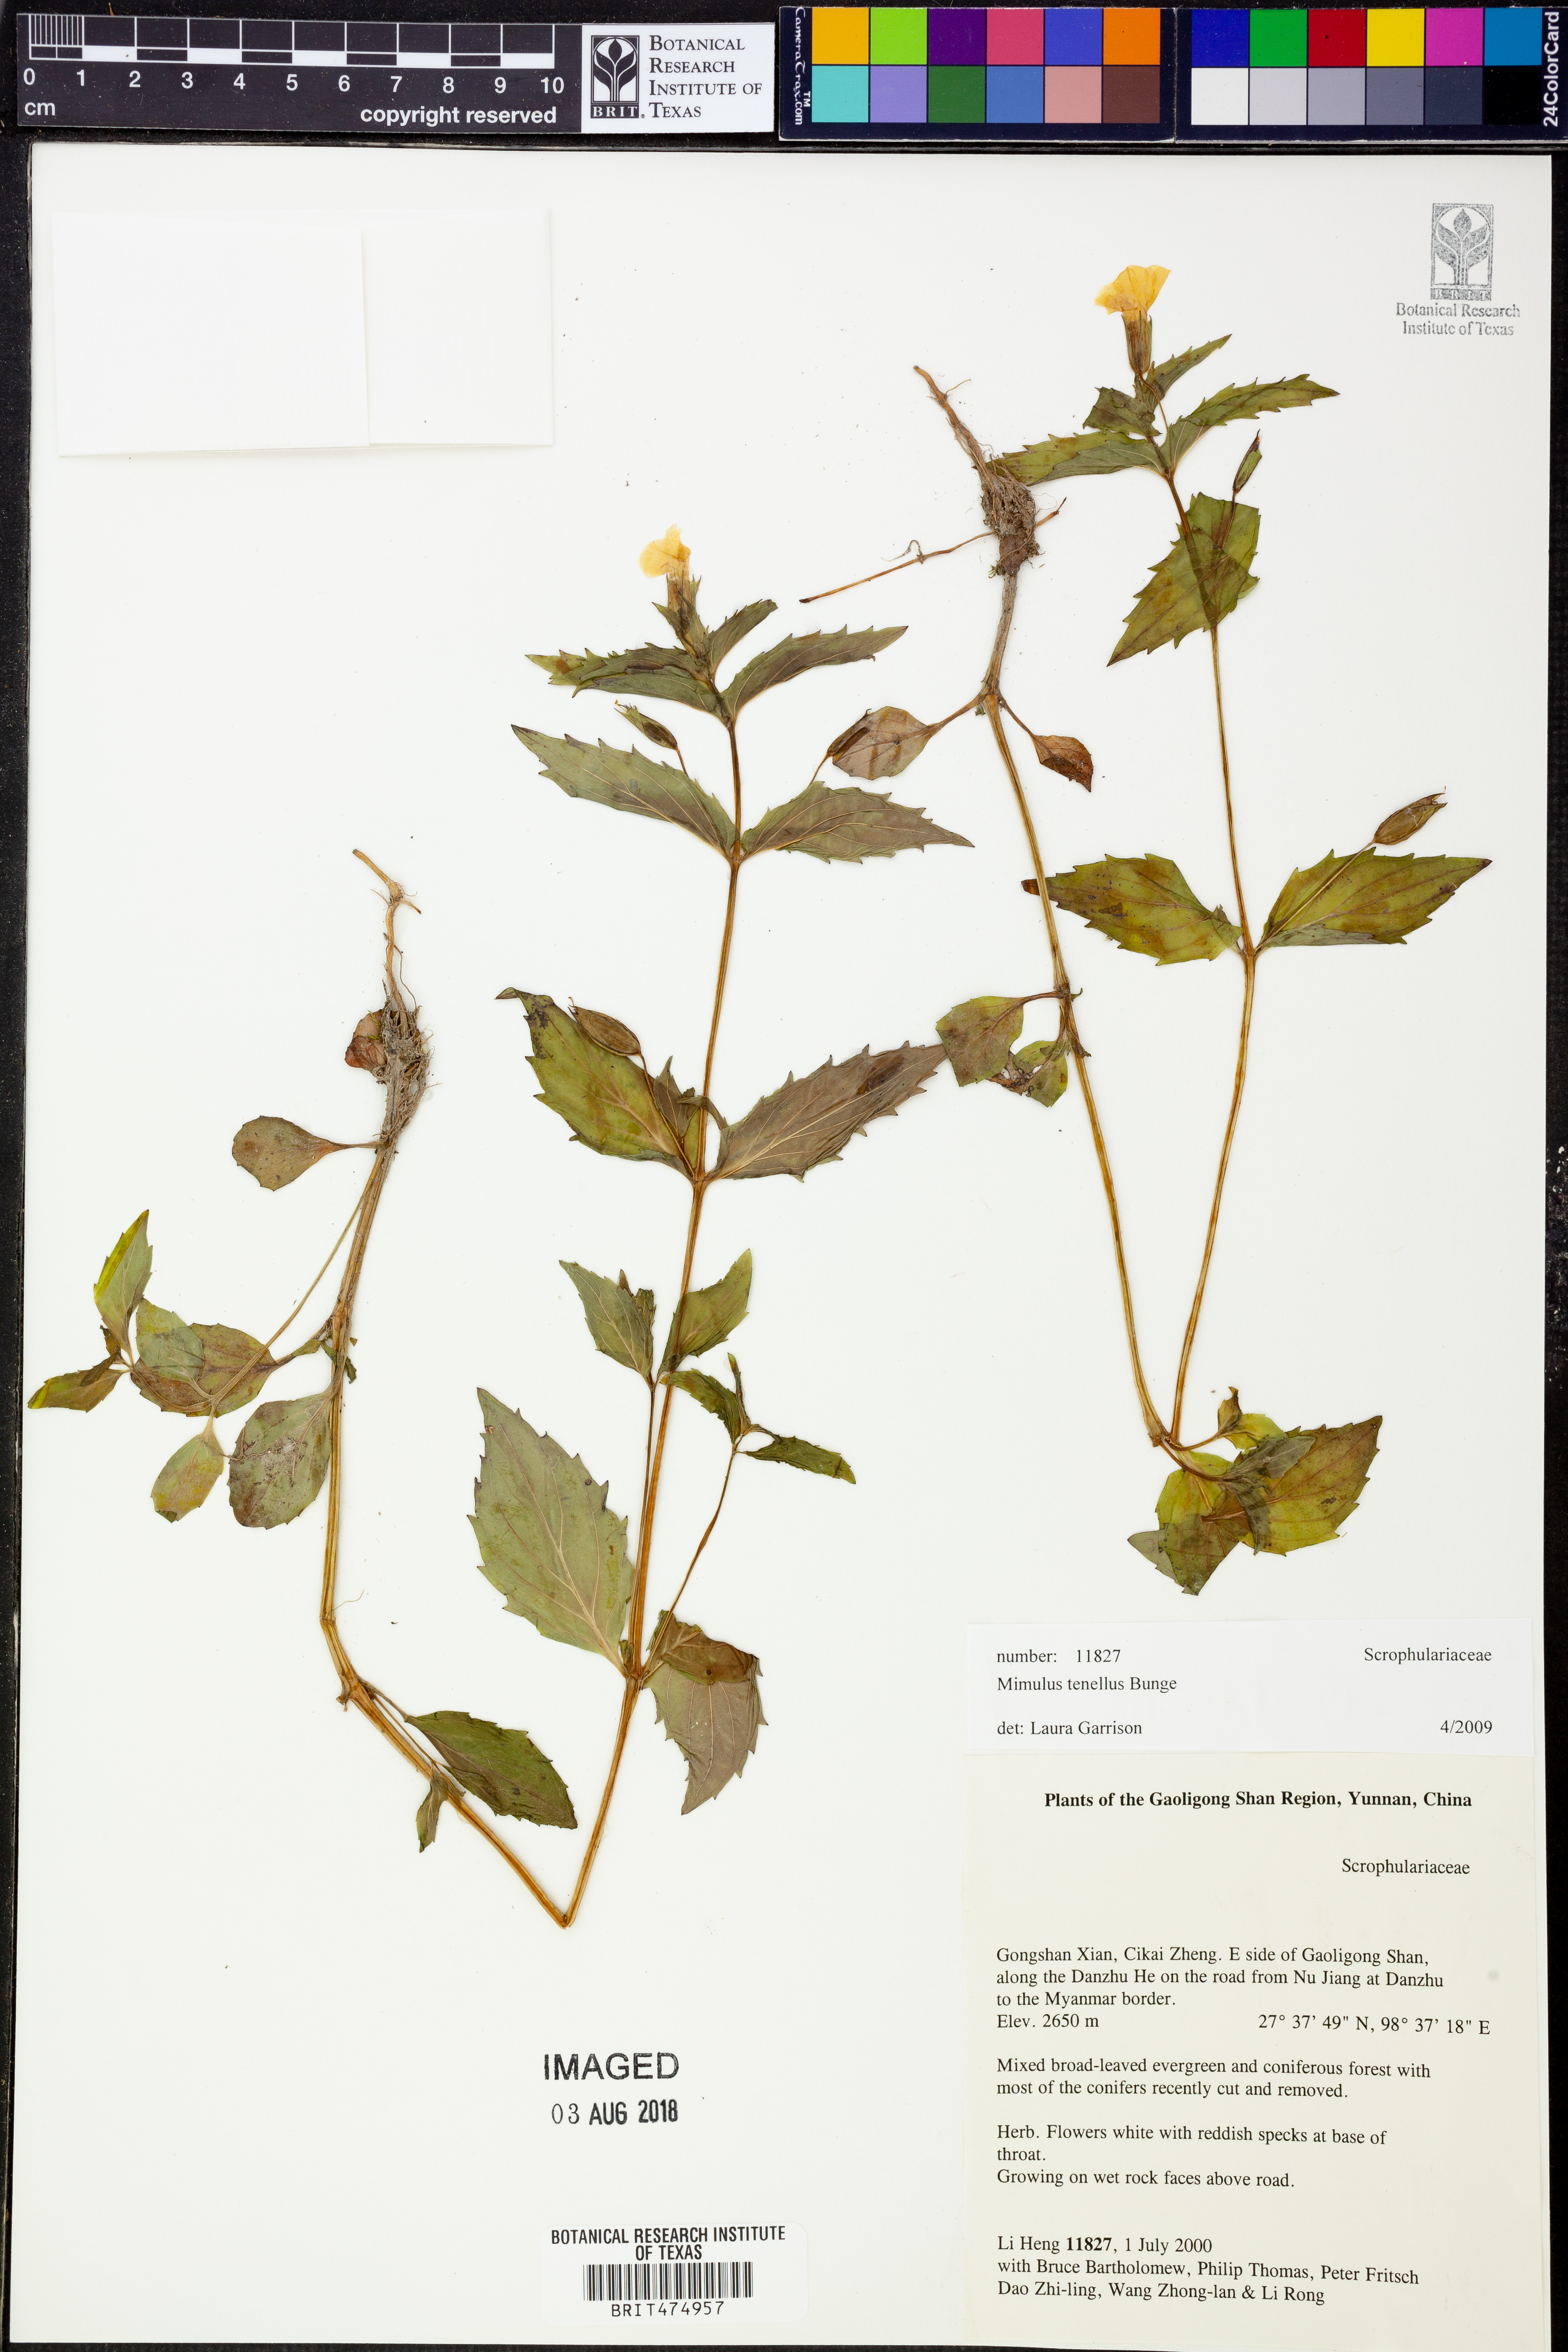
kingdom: Plantae
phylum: Tracheophyta
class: Magnoliopsida
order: Lamiales
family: Phrymaceae
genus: Erythranthe
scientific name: Erythranthe microphylla
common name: Bentham's monkeyflower
